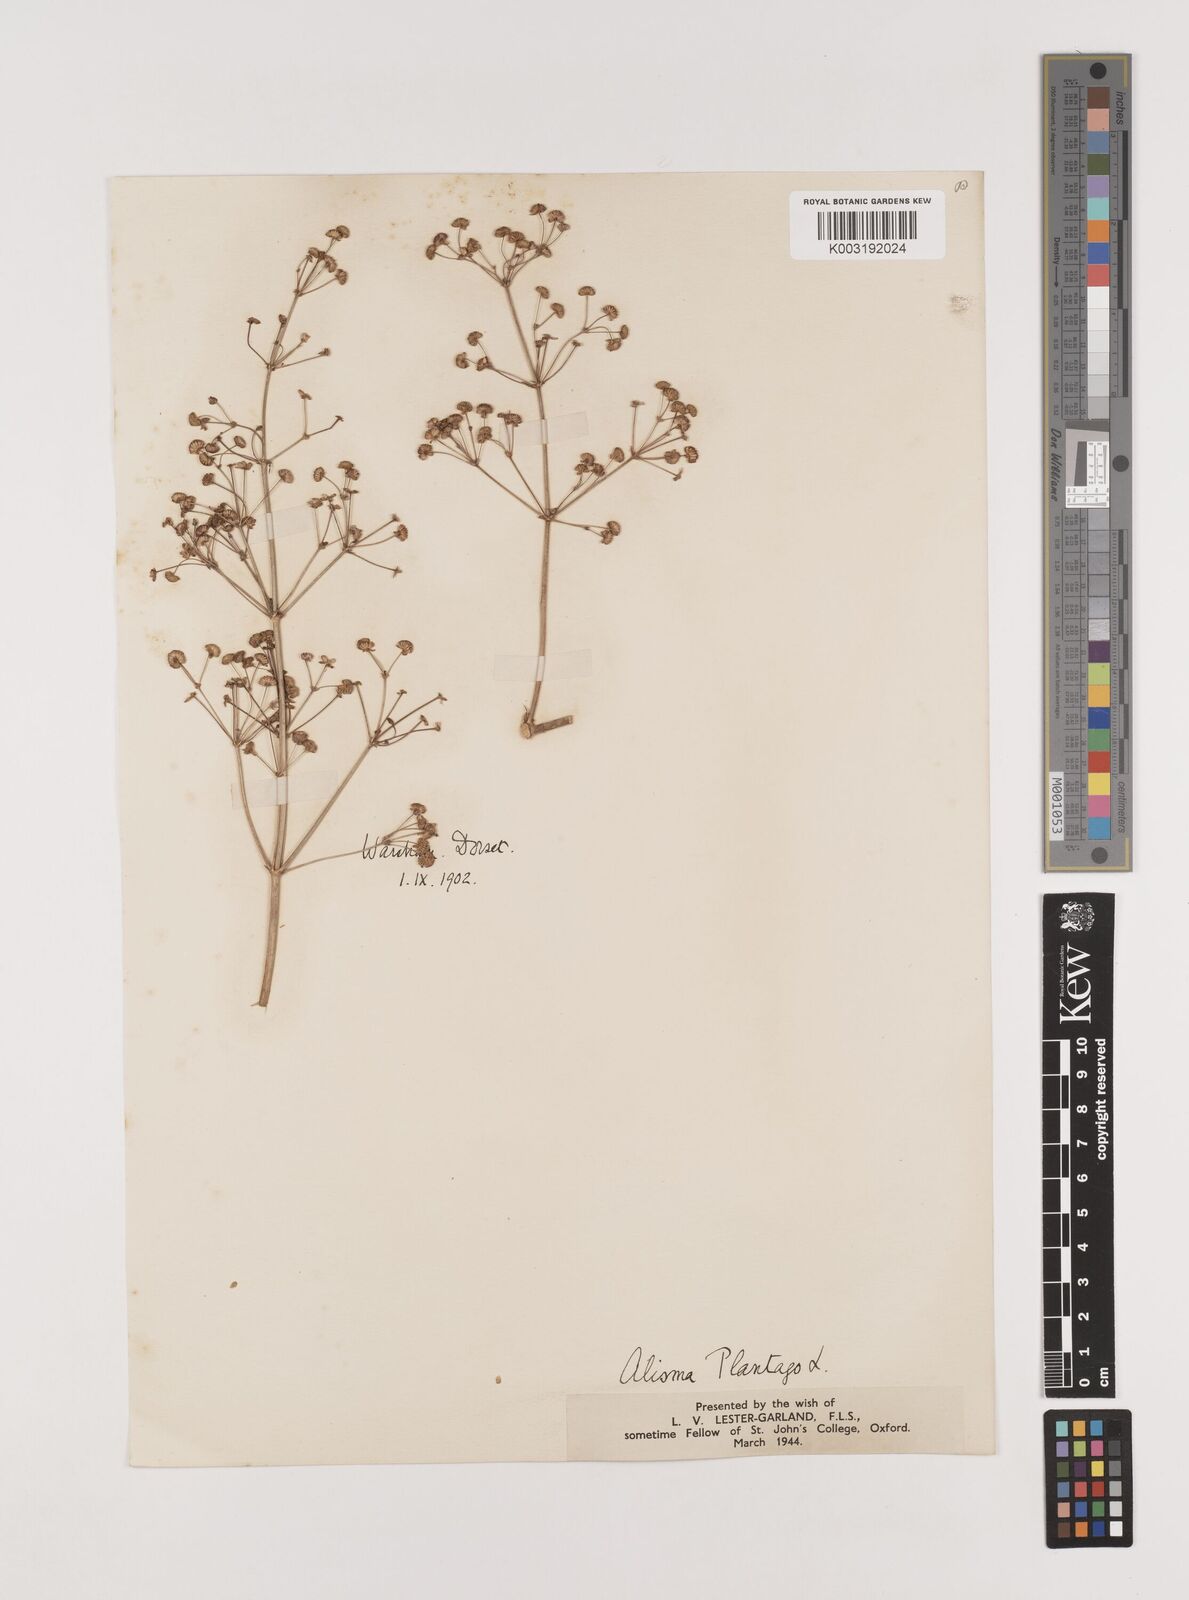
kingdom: Plantae
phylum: Tracheophyta
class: Liliopsida
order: Alismatales
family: Alismataceae
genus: Alisma
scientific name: Alisma plantago-aquatica
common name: Water-plantain
